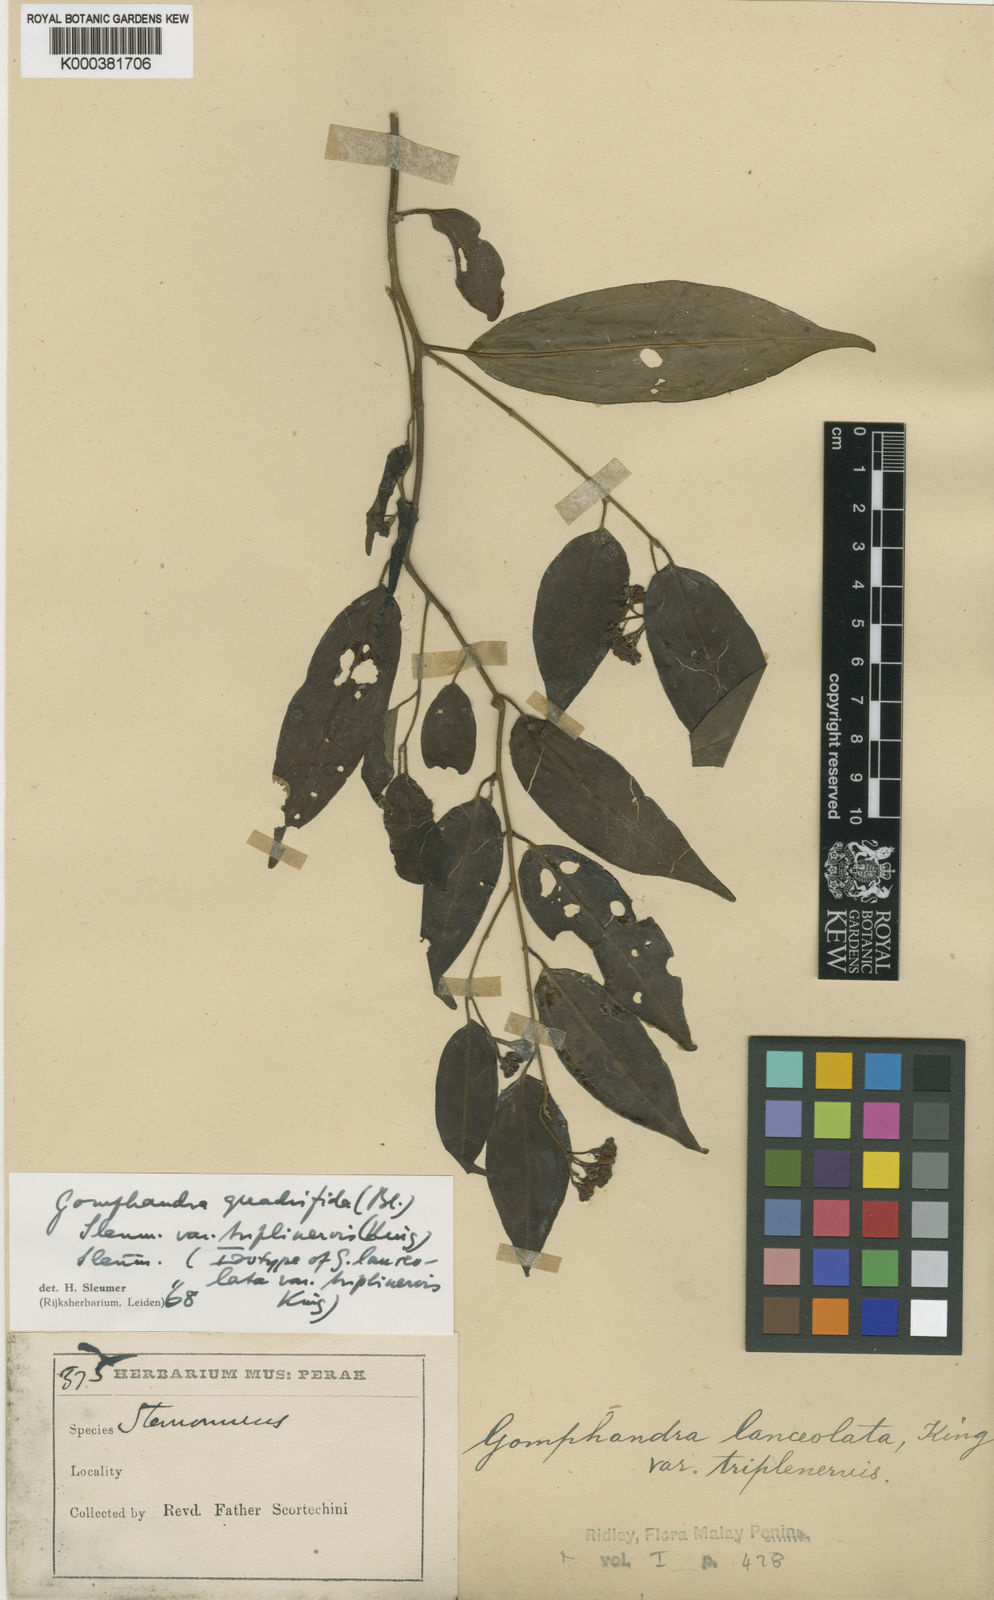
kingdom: Plantae
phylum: Tracheophyta
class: Magnoliopsida
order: Cardiopteridales
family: Stemonuraceae
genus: Gomphandra
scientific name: Gomphandra quadrifida
